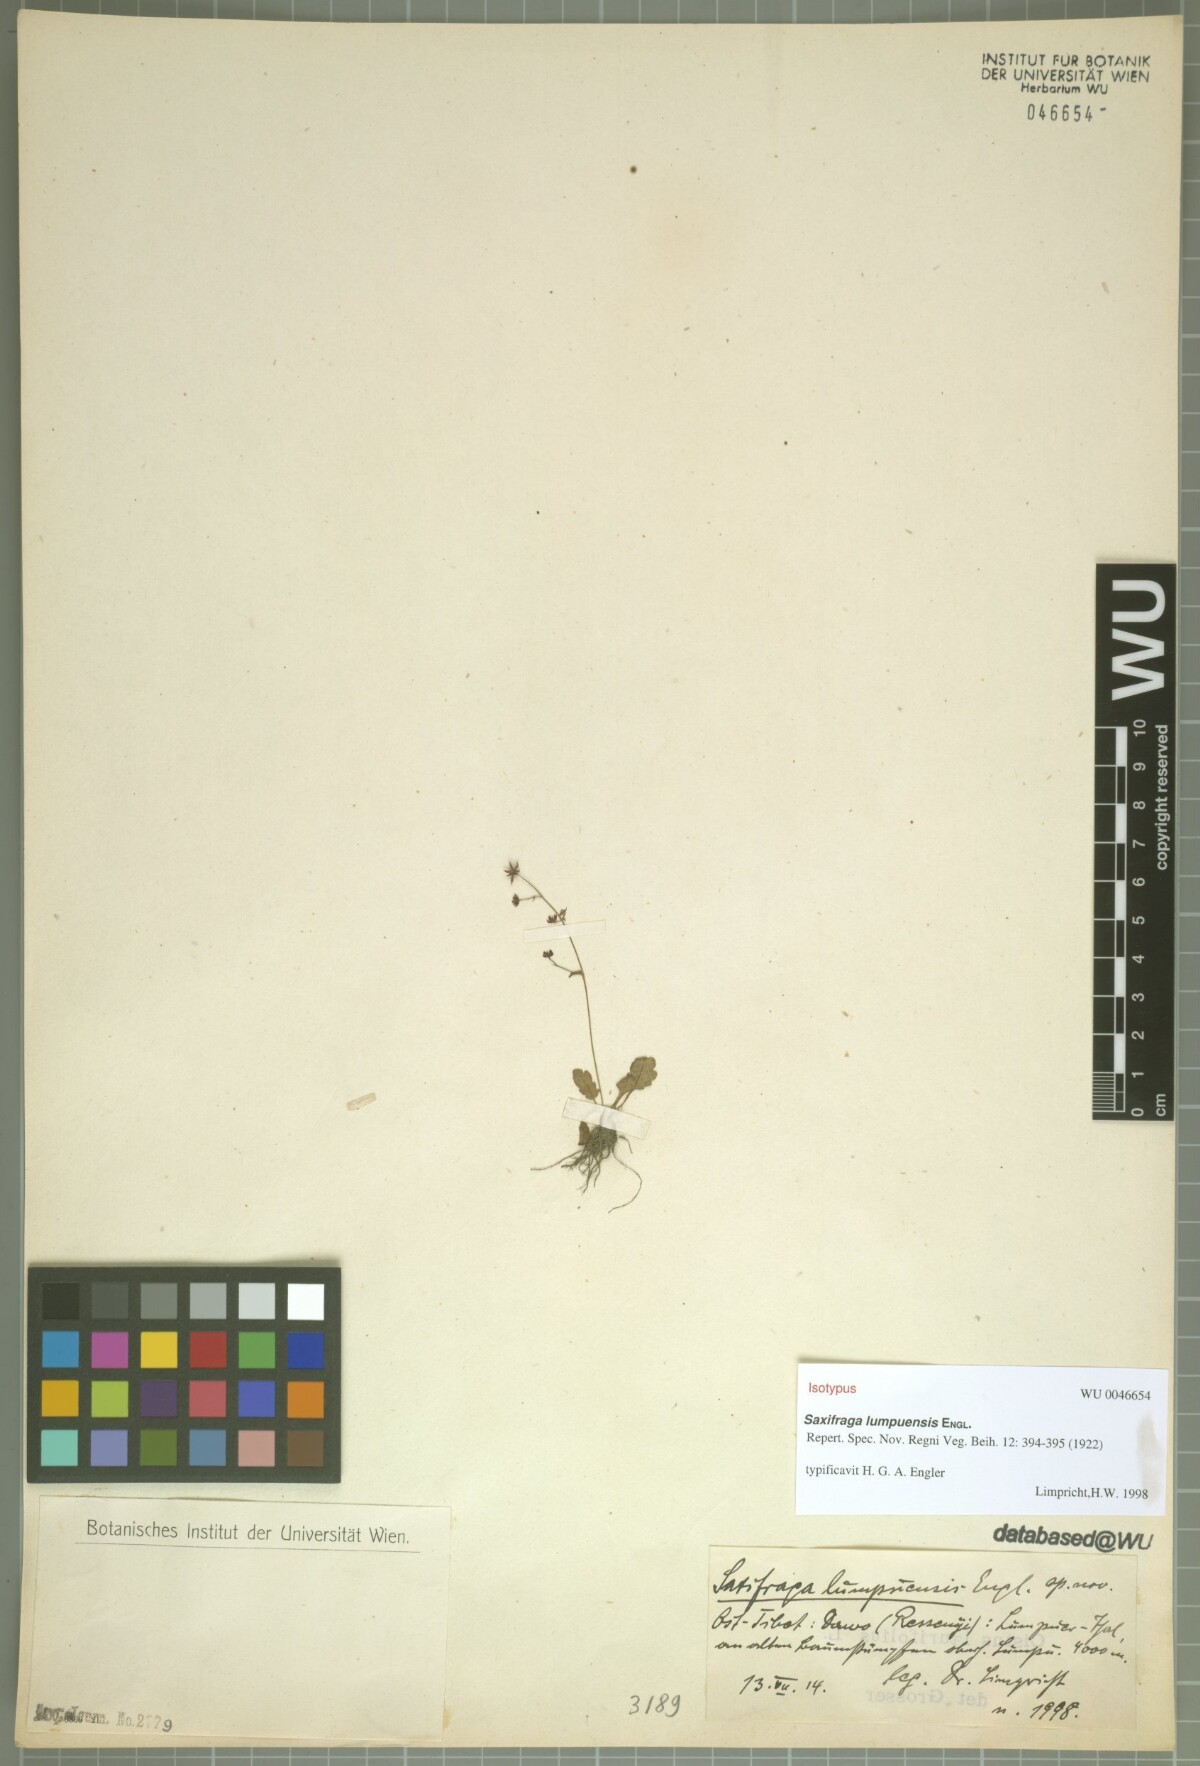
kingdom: Plantae
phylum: Tracheophyta
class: Magnoliopsida
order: Saxifragales
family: Saxifragaceae
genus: Micranthes
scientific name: Micranthes lumpuensis
